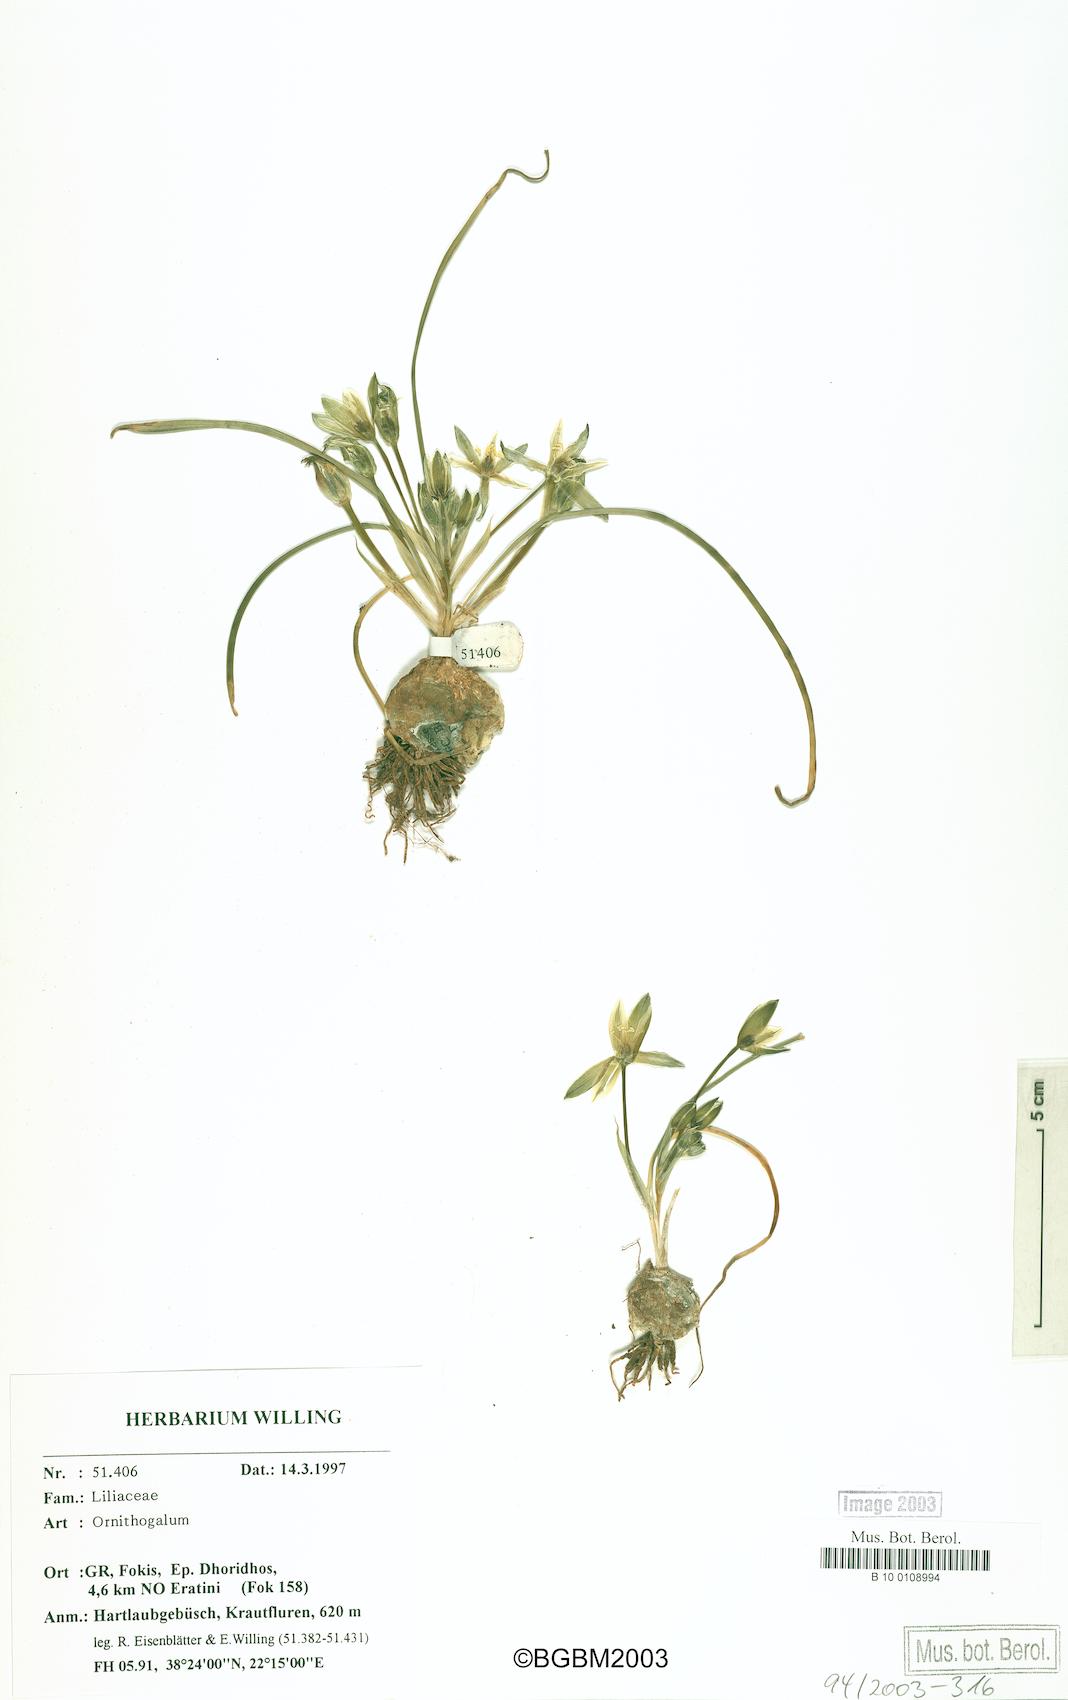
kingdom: Plantae
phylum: Tracheophyta
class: Liliopsida
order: Asparagales
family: Asparagaceae
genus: Ornithogalum
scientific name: Ornithogalum
